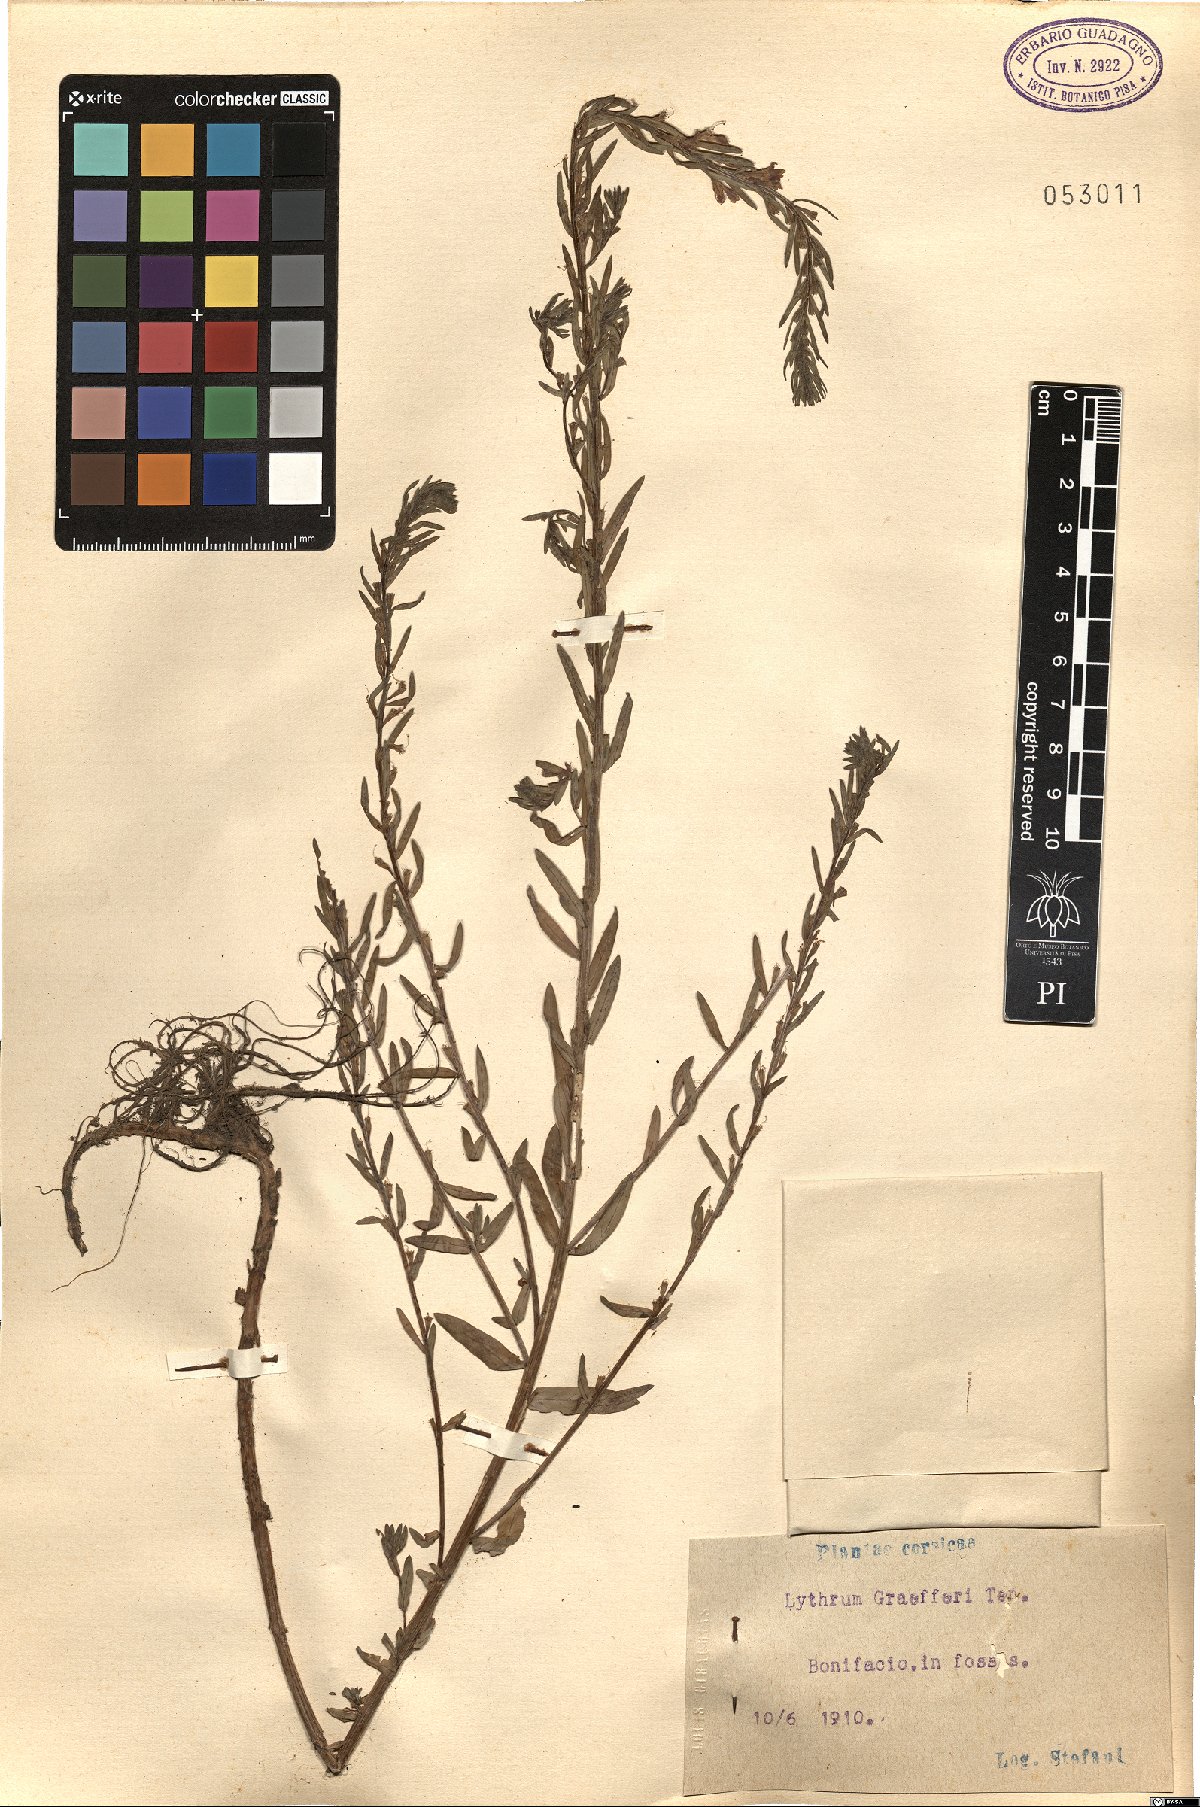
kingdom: Plantae
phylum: Tracheophyta
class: Magnoliopsida
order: Myrtales
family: Lythraceae
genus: Lythrum
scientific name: Lythrum junceum
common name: False grass-poly
